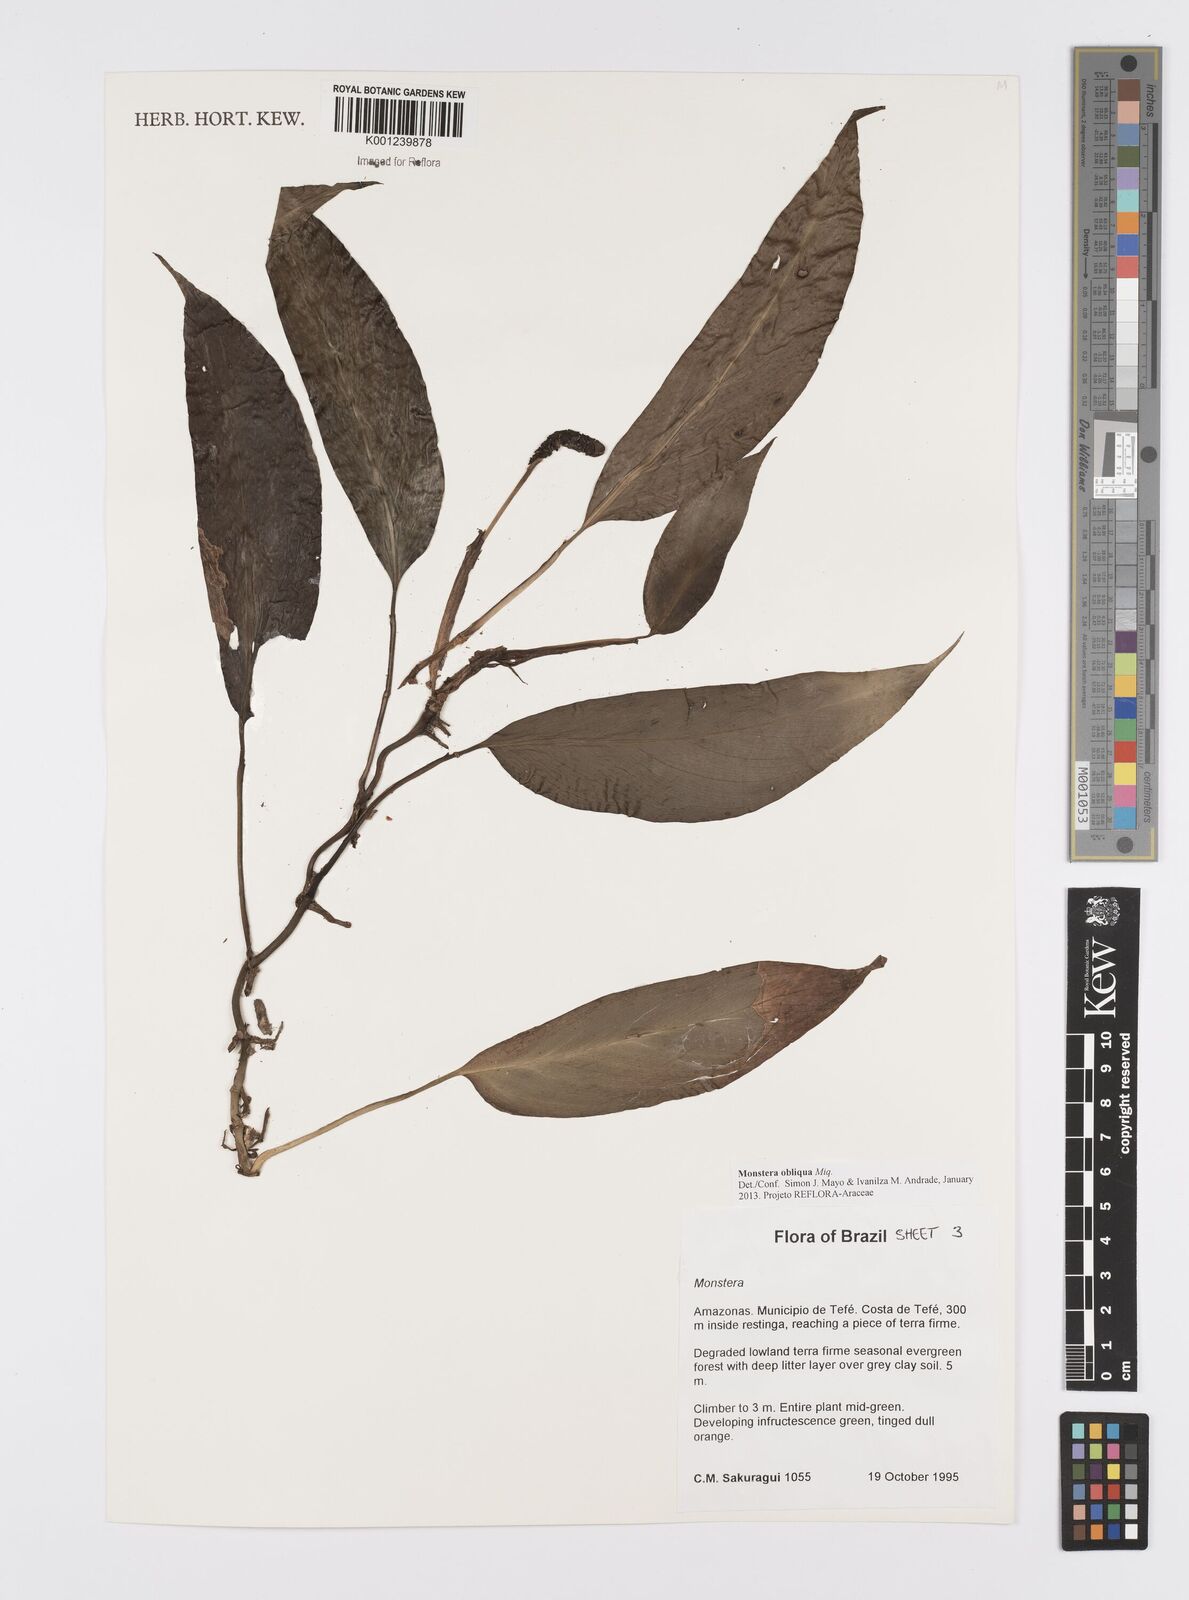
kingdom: Plantae
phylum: Tracheophyta
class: Liliopsida
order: Alismatales
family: Araceae
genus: Monstera
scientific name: Monstera obliqua
